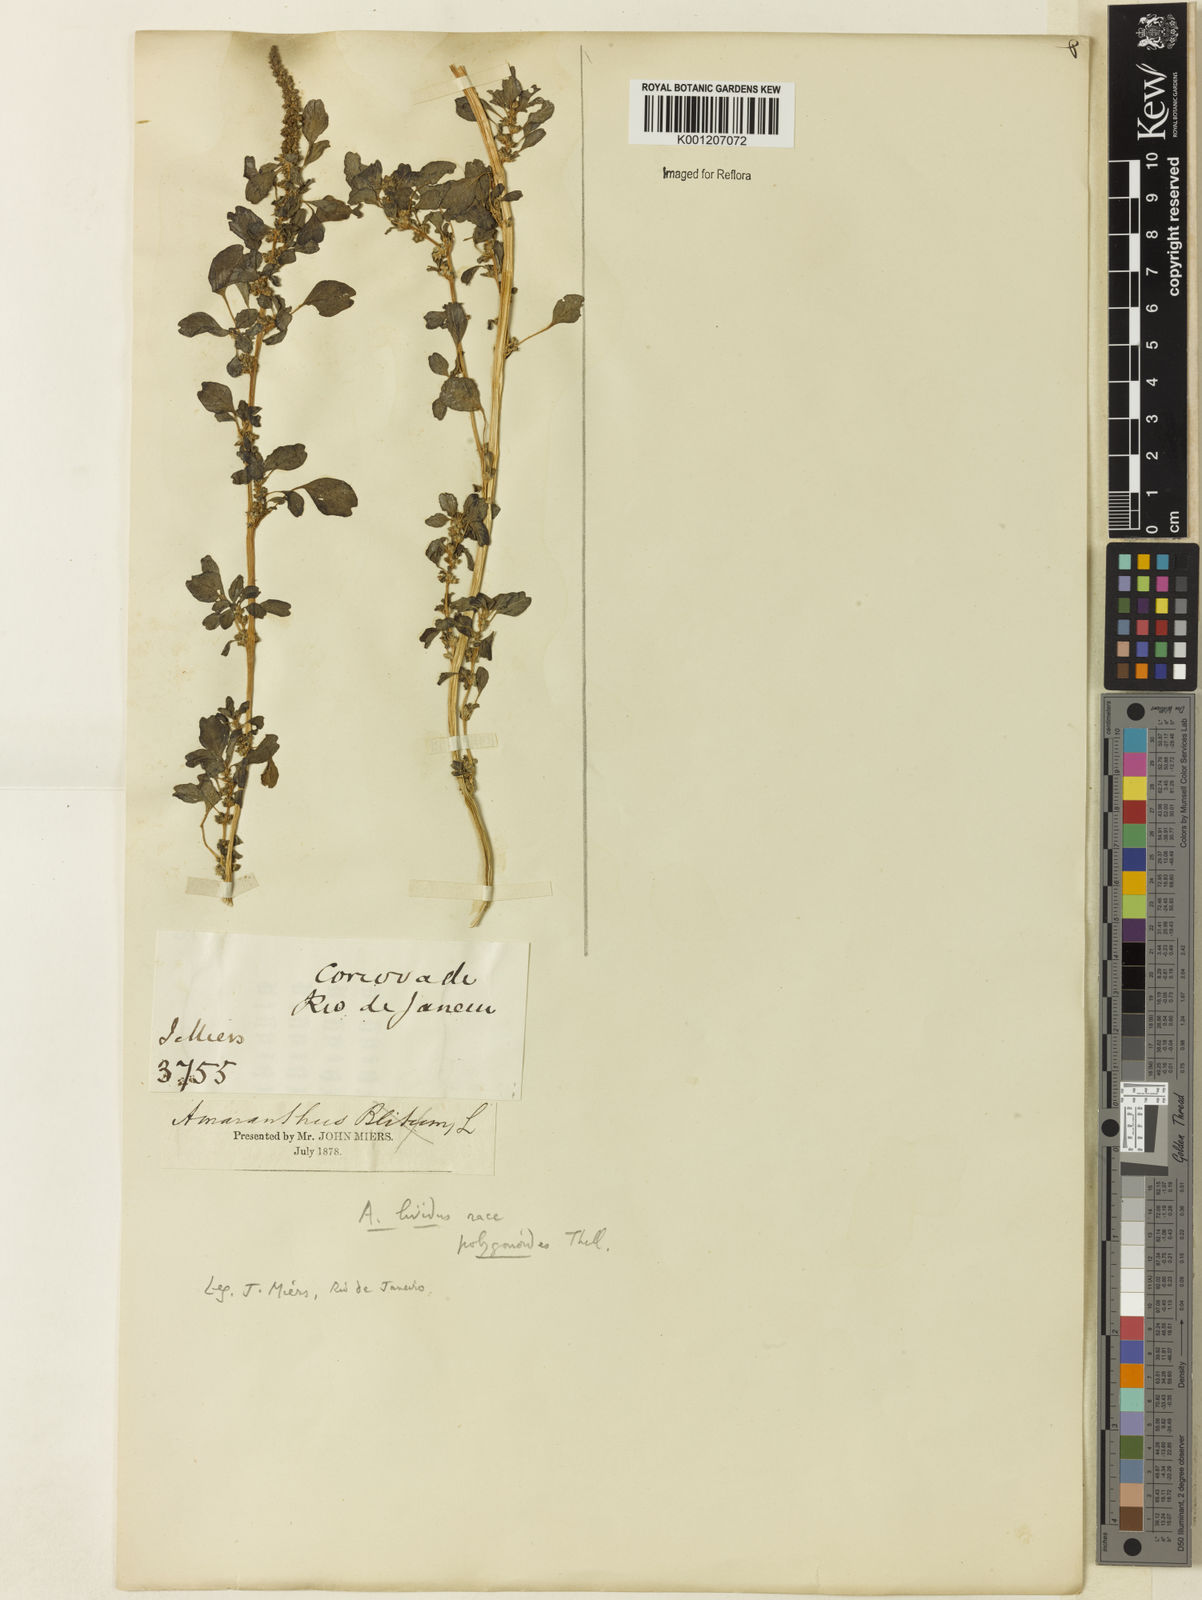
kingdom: Plantae
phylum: Tracheophyta
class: Magnoliopsida
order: Caryophyllales
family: Amaranthaceae
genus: Amaranthus
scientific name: Amaranthus emarginatus
